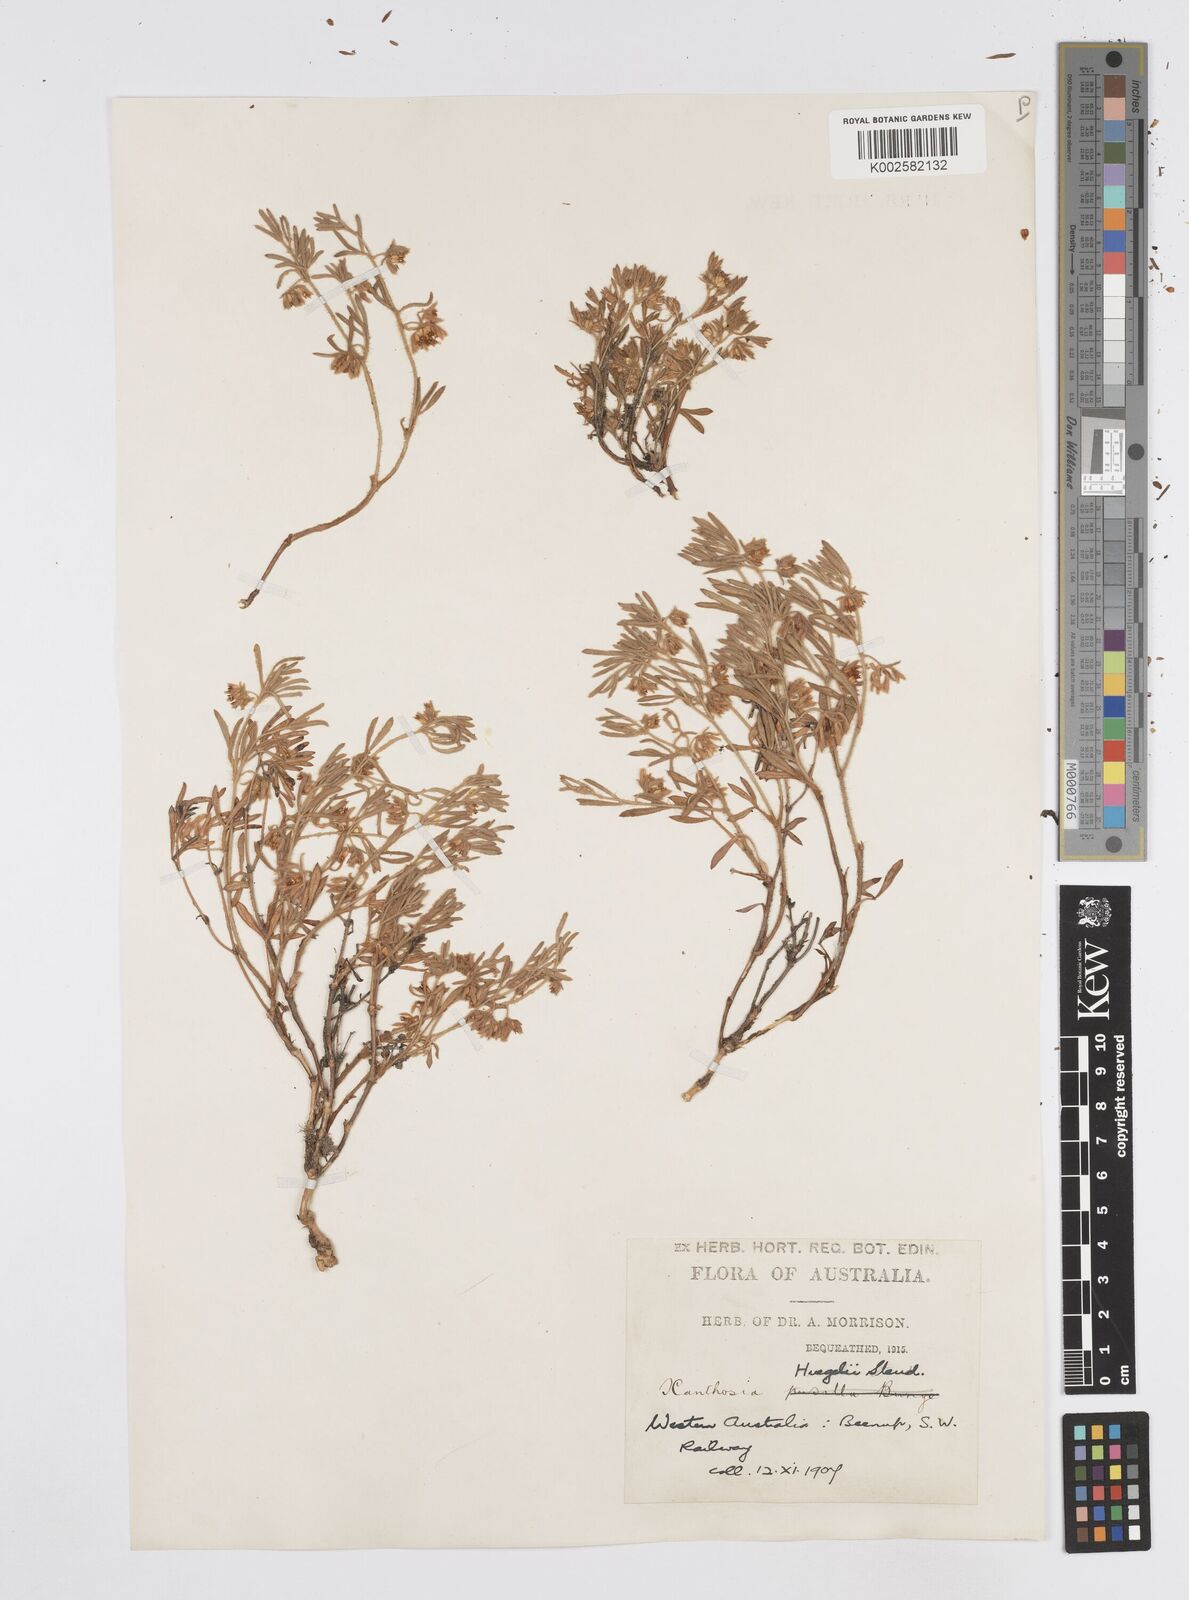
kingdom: Plantae
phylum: Tracheophyta
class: Magnoliopsida
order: Apiales
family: Apiaceae
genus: Xanthosia
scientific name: Xanthosia huegelii
